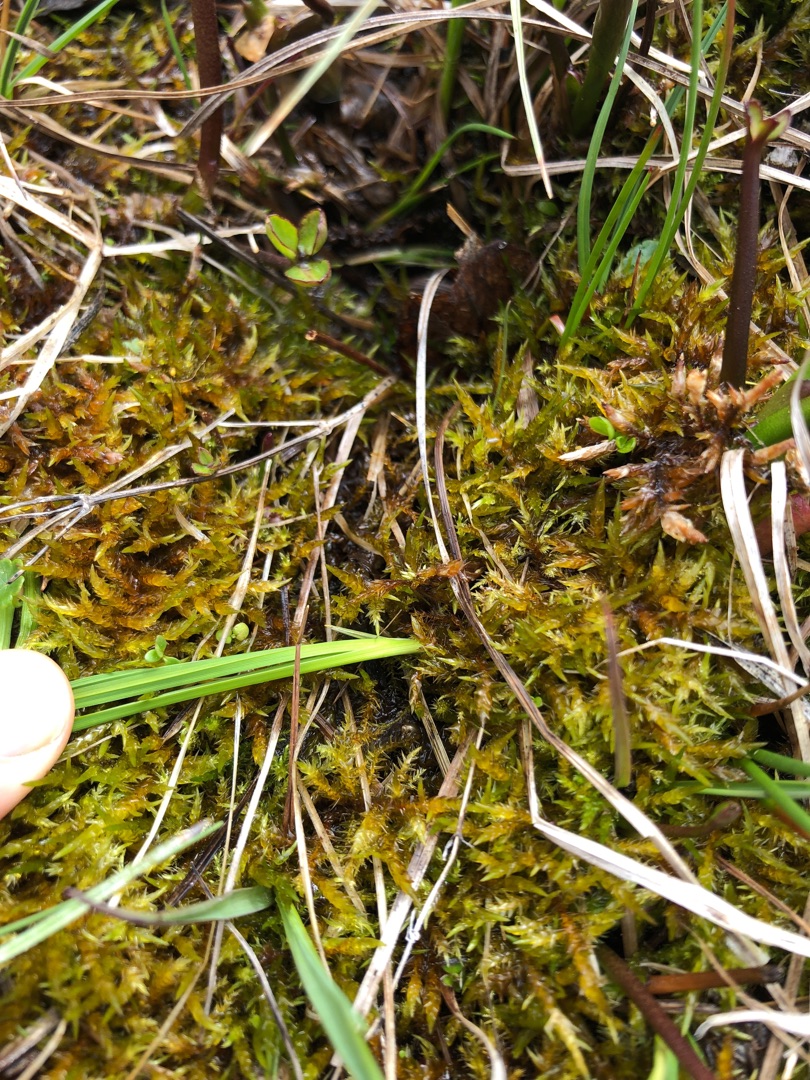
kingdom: Plantae
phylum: Bryophyta
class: Bryopsida
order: Hypnales
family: Pylaisiaceae
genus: Calliergonella
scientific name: Calliergonella cuspidata
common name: Spids spydmos
